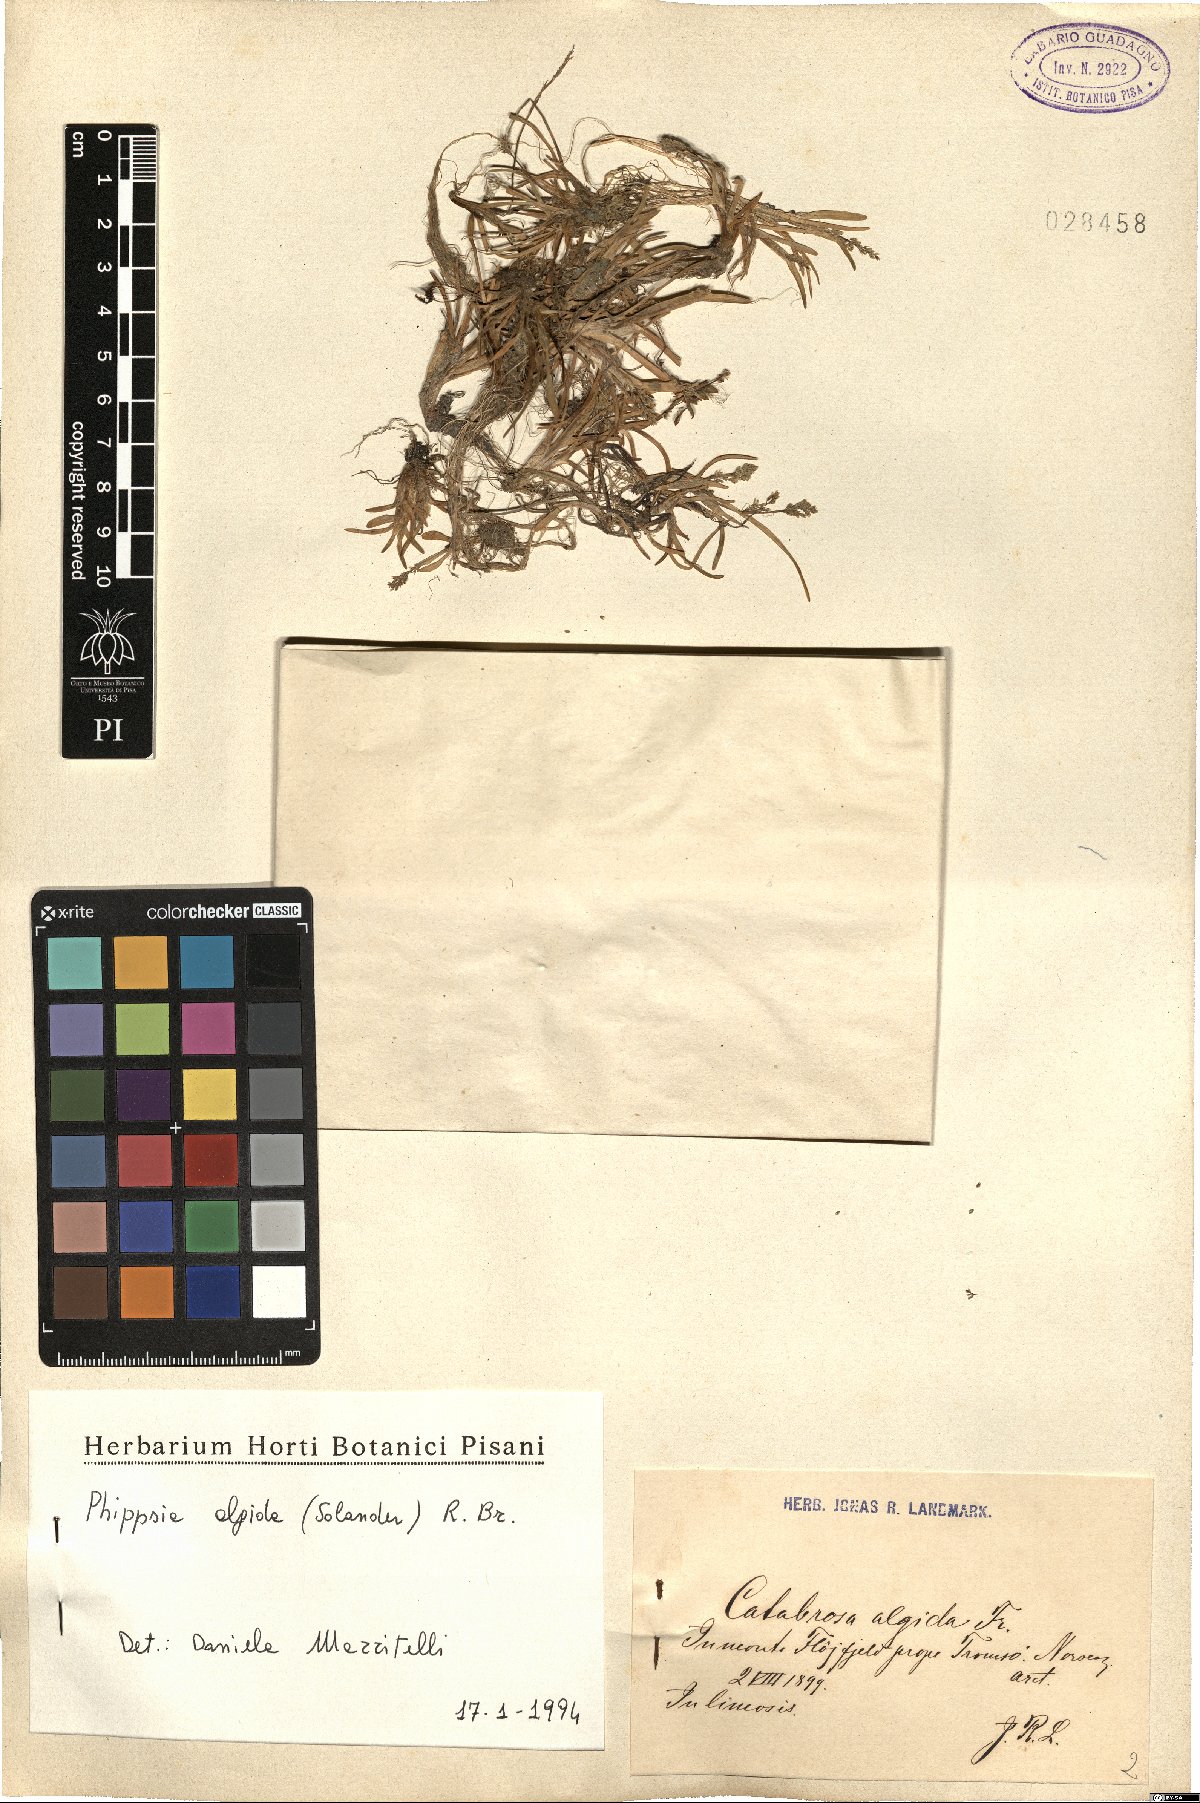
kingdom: Plantae
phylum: Tracheophyta
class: Liliopsida
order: Poales
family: Poaceae
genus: Phippsia
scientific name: Phippsia algida
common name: Ice grass
